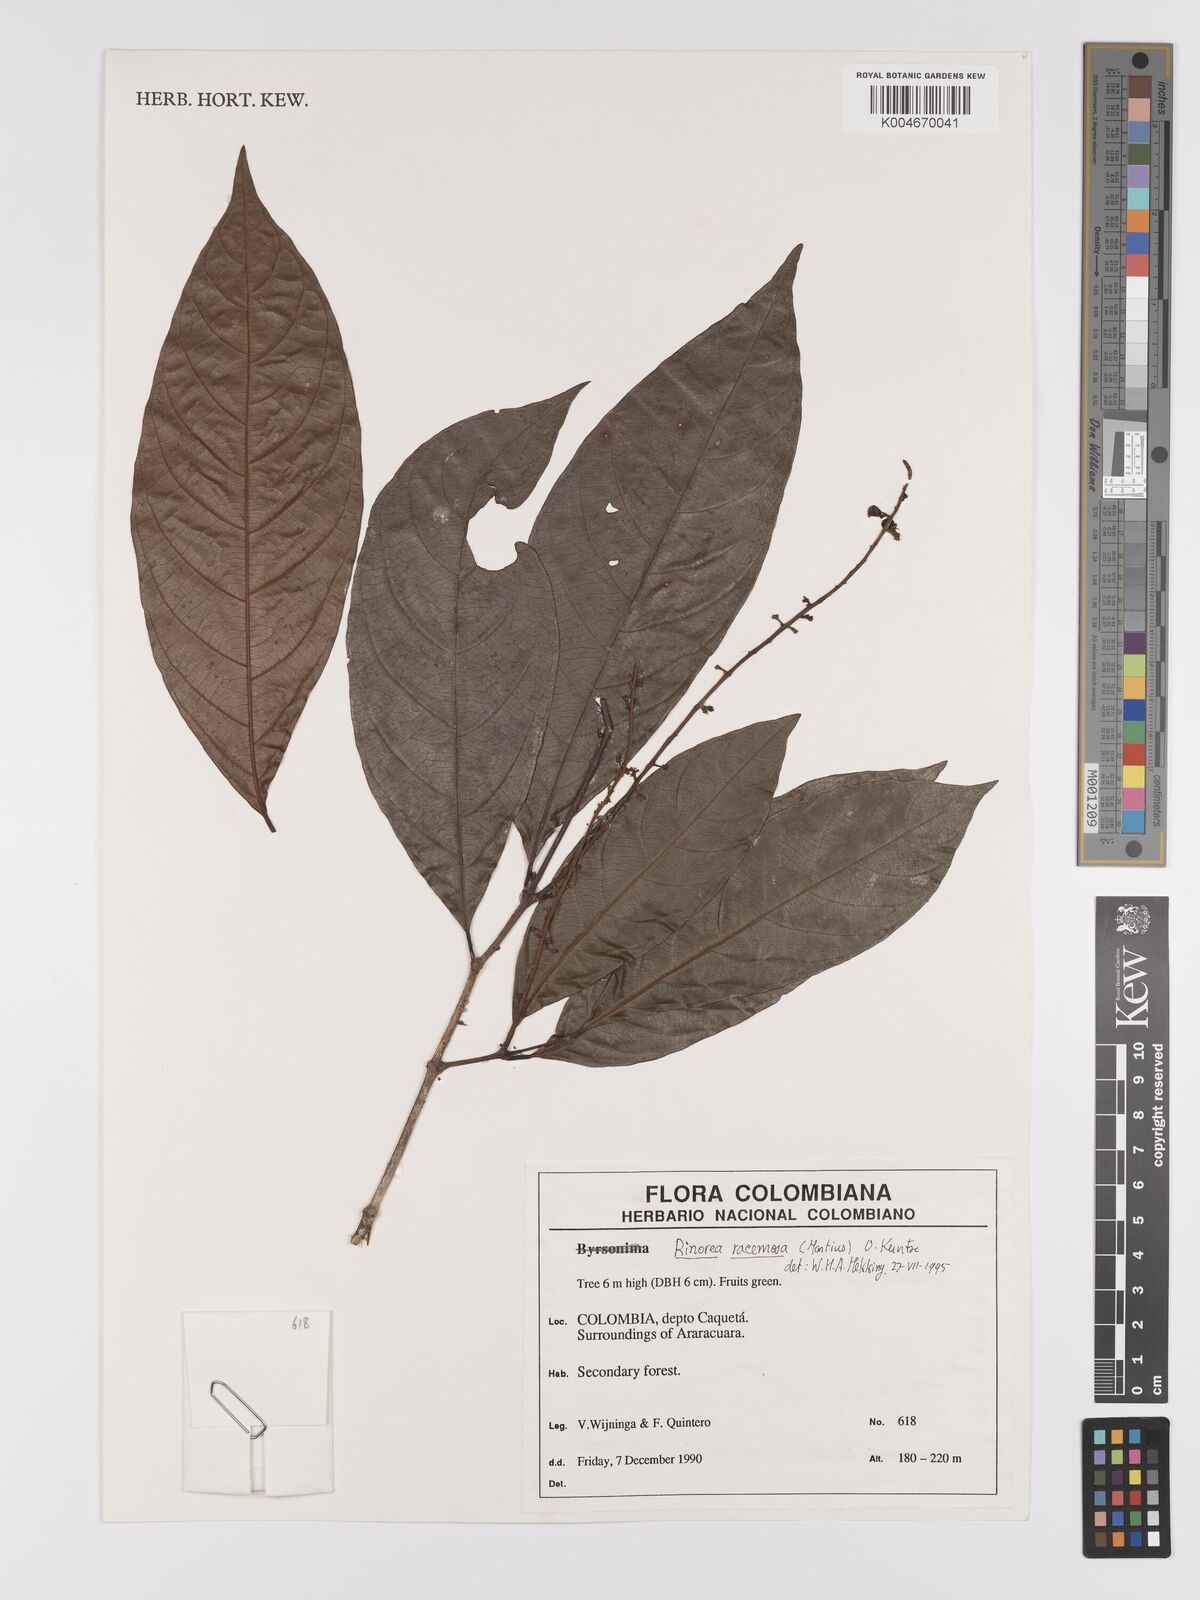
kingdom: Plantae
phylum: Tracheophyta
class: Magnoliopsida
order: Malpighiales
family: Violaceae
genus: Rinorea
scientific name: Rinorea racemosa
